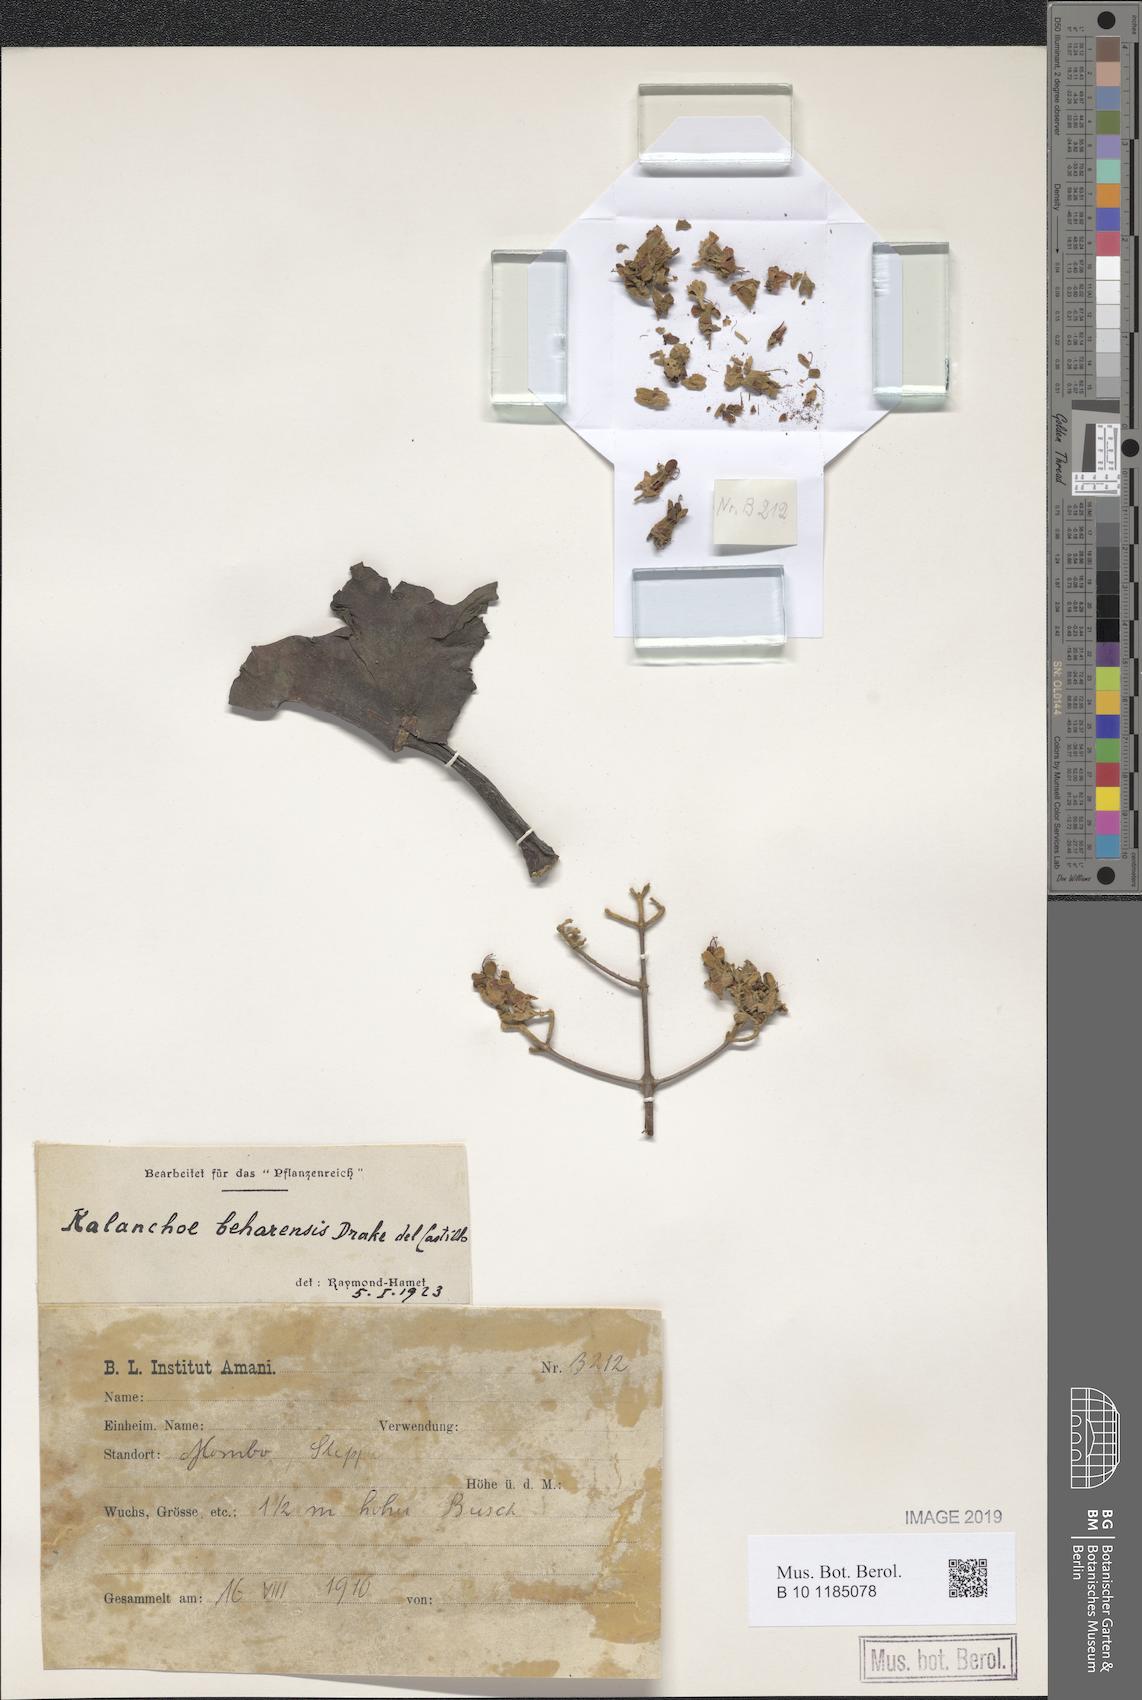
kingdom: Plantae
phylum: Tracheophyta
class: Magnoliopsida
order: Saxifragales
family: Crassulaceae
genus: Kalanchoe
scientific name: Kalanchoe beharensis
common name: Velvet leaf
